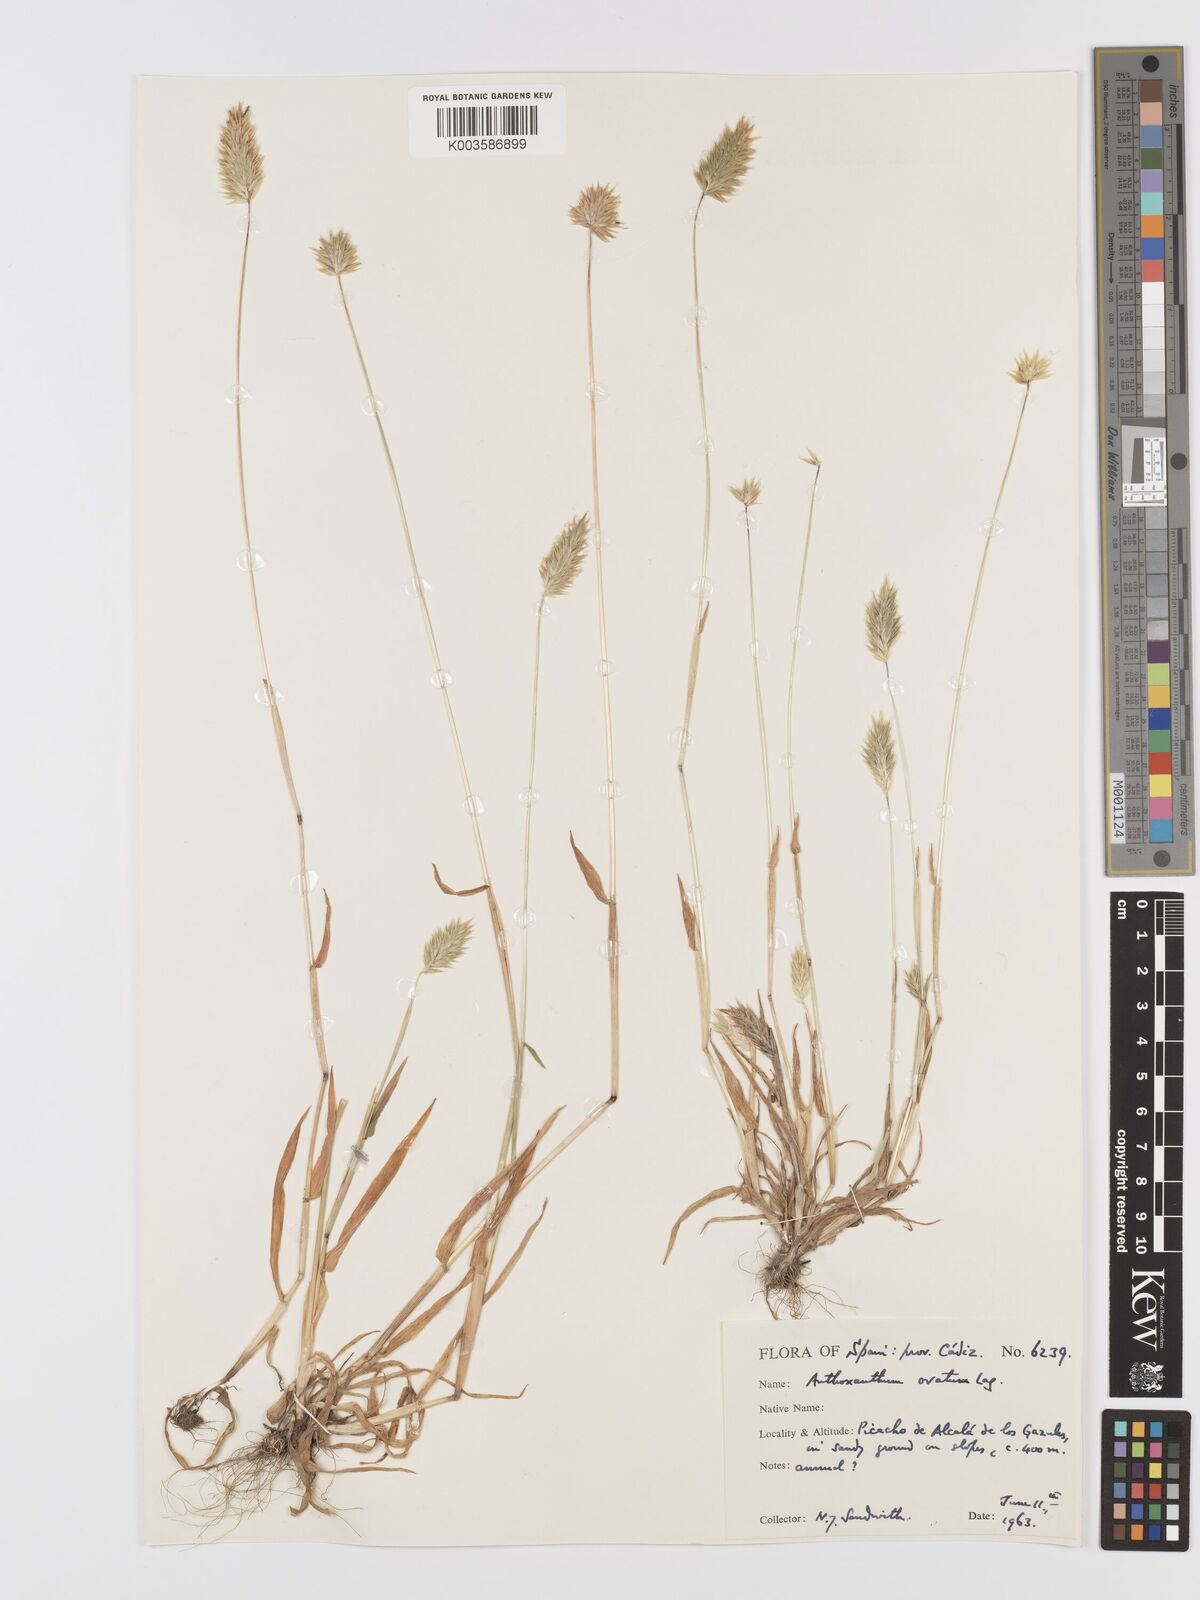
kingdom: Plantae
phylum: Tracheophyta
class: Liliopsida
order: Poales
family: Poaceae
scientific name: Poaceae
